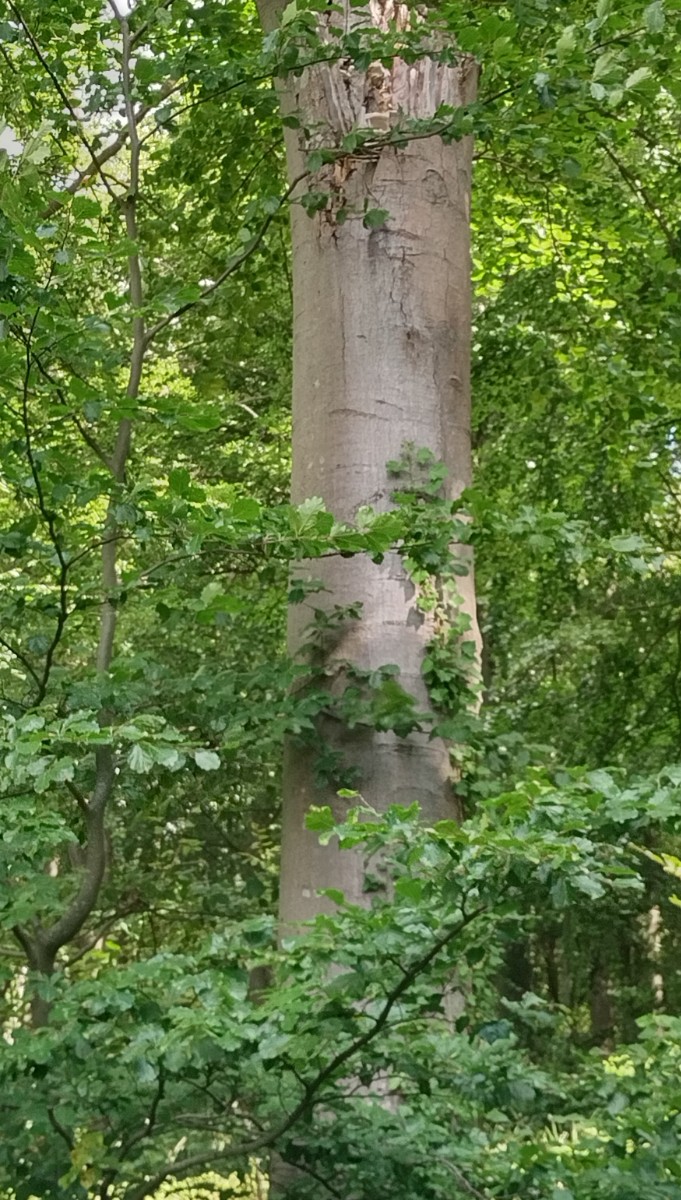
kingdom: Fungi
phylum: Basidiomycota
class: Agaricomycetes
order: Polyporales
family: Meruliaceae
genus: Pappia
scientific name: Pappia fissilis
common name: sej fedtporesvamp
